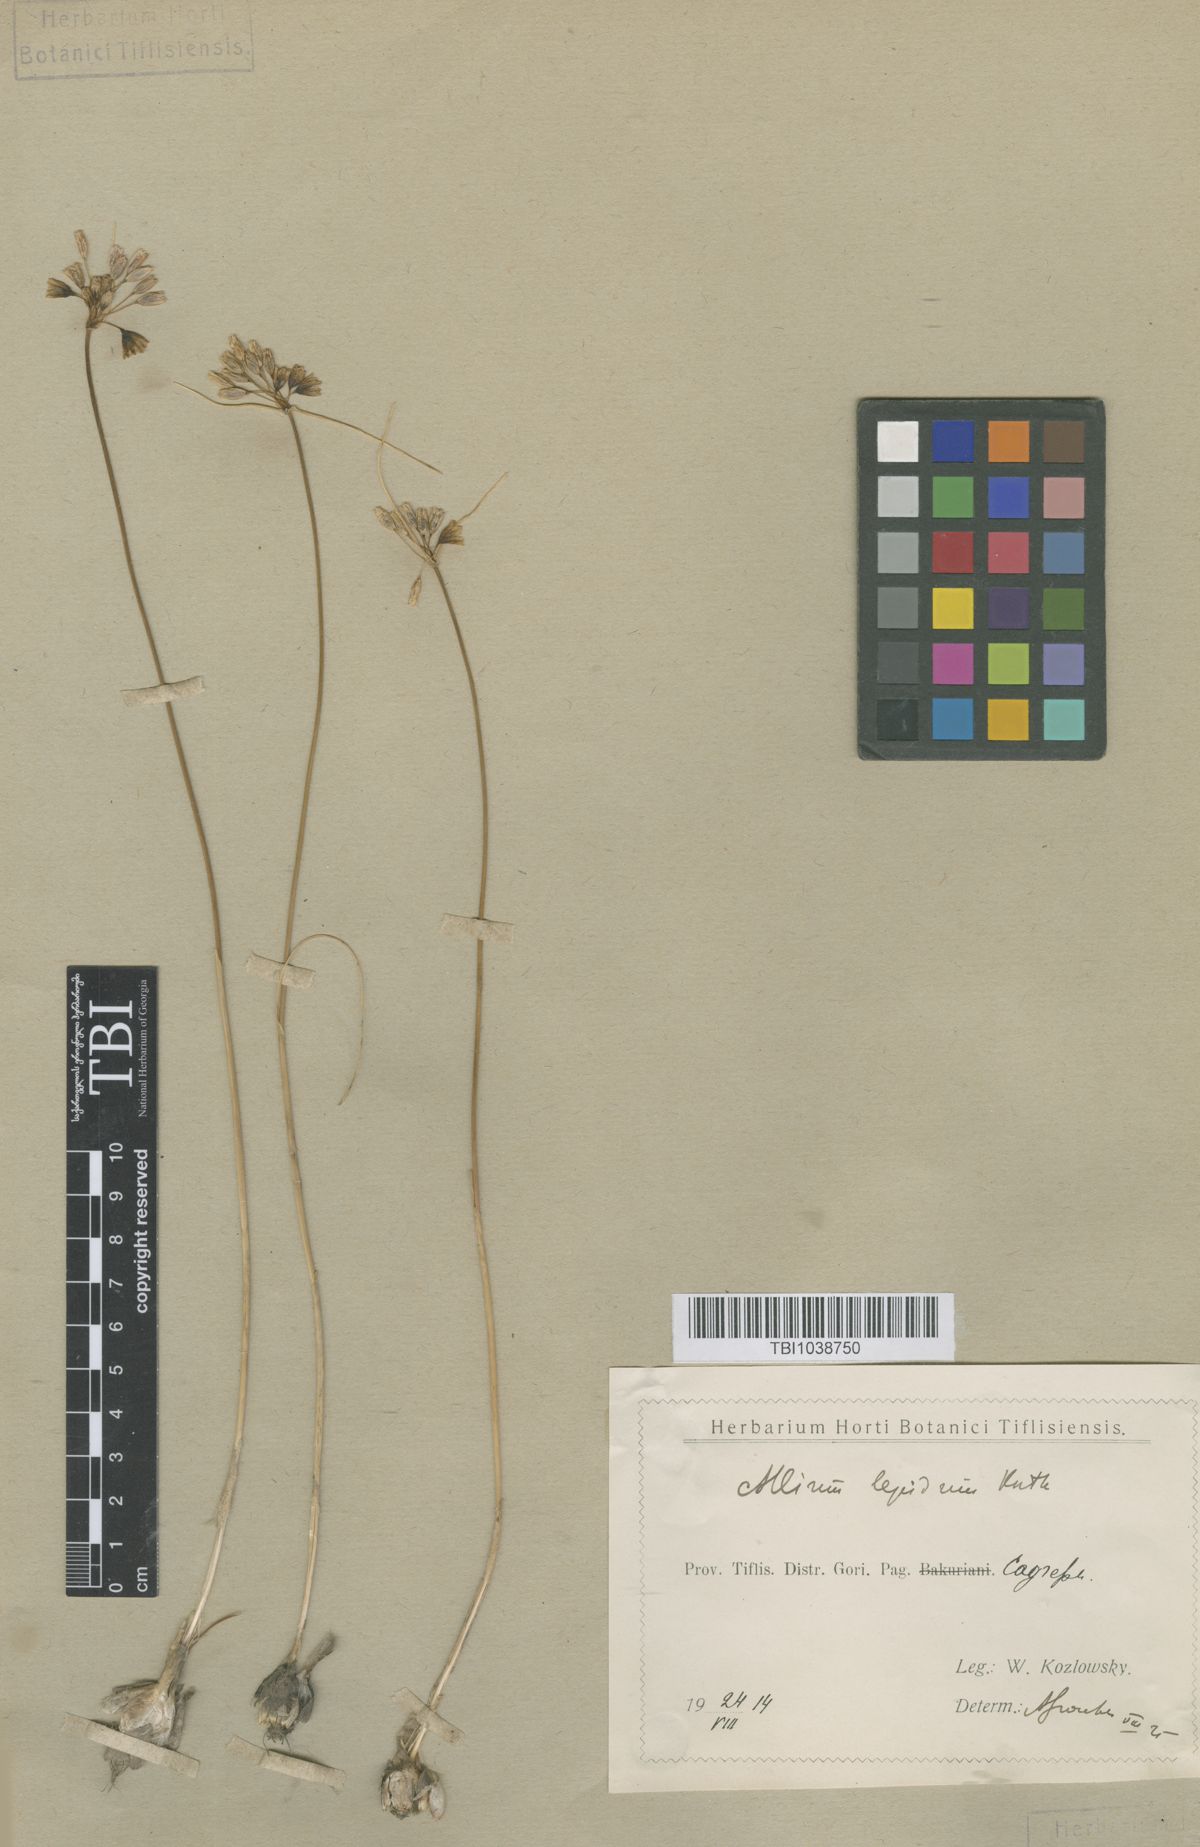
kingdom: Plantae
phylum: Tracheophyta
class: Liliopsida
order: Asparagales
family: Amaryllidaceae
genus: Allium
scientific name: Allium kunthianum
